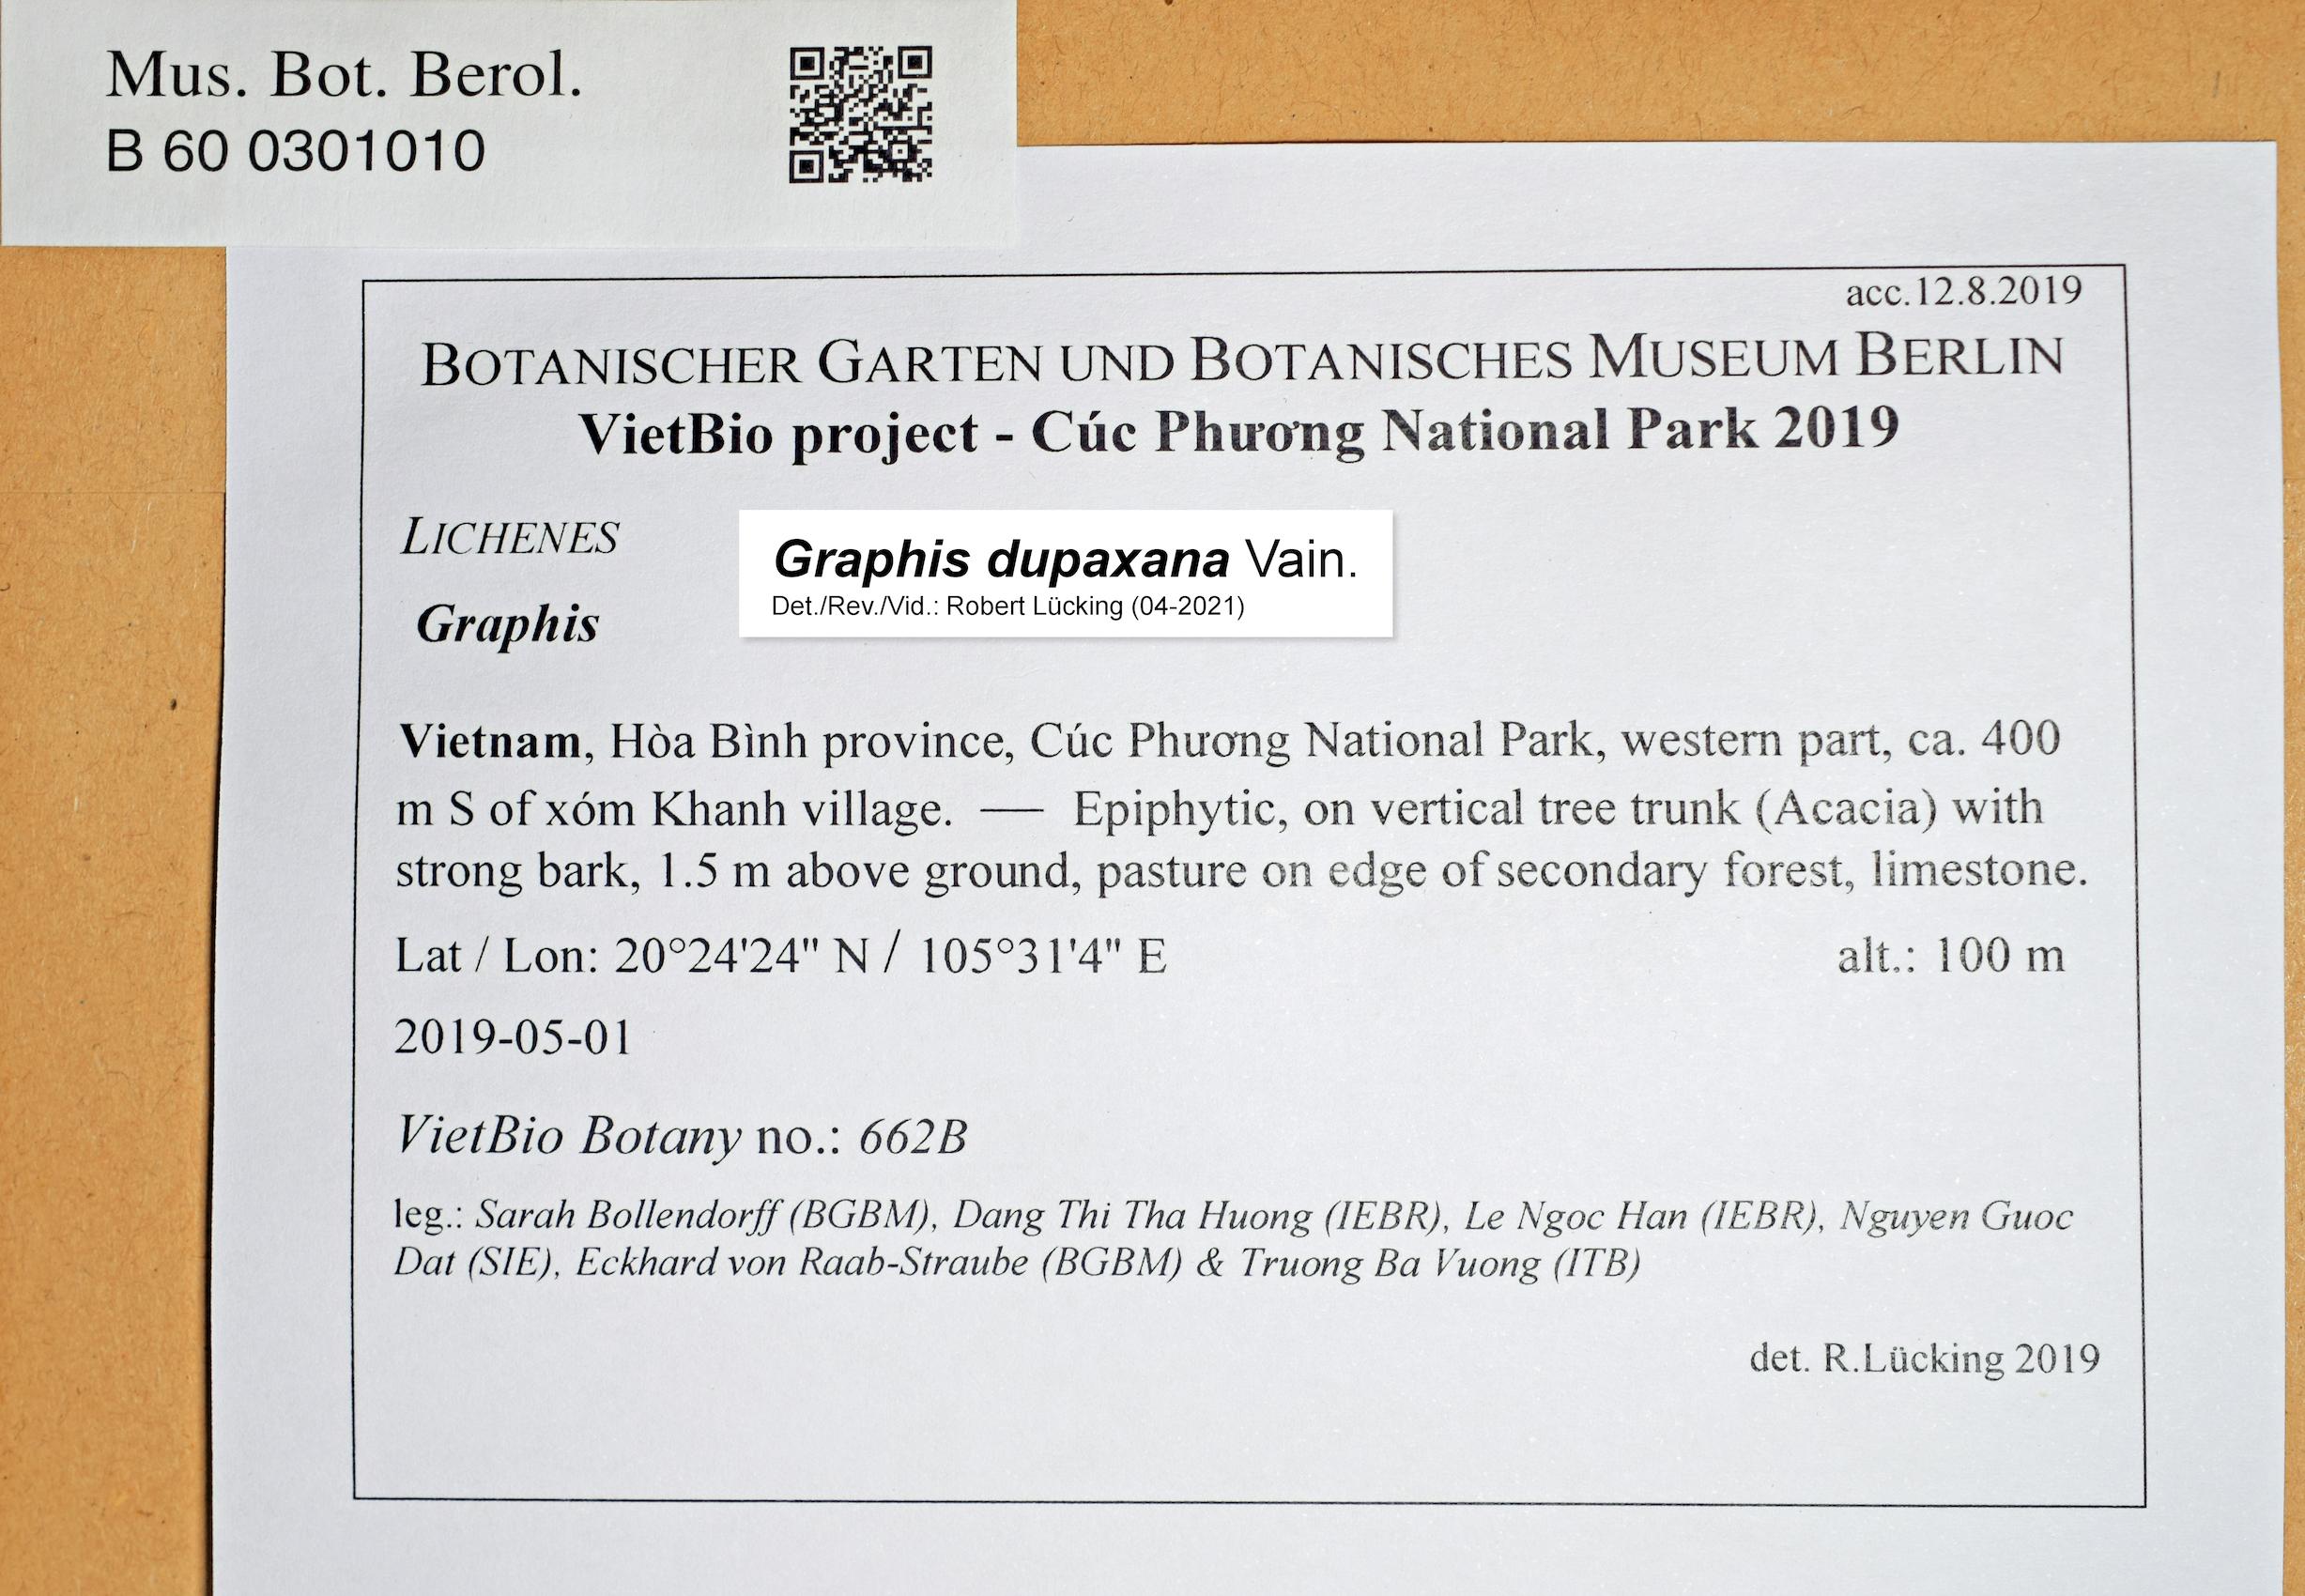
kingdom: Fungi
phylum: Ascomycota
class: Lecanoromycetes
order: Ostropales
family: Graphidaceae
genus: Graphis
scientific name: Graphis
